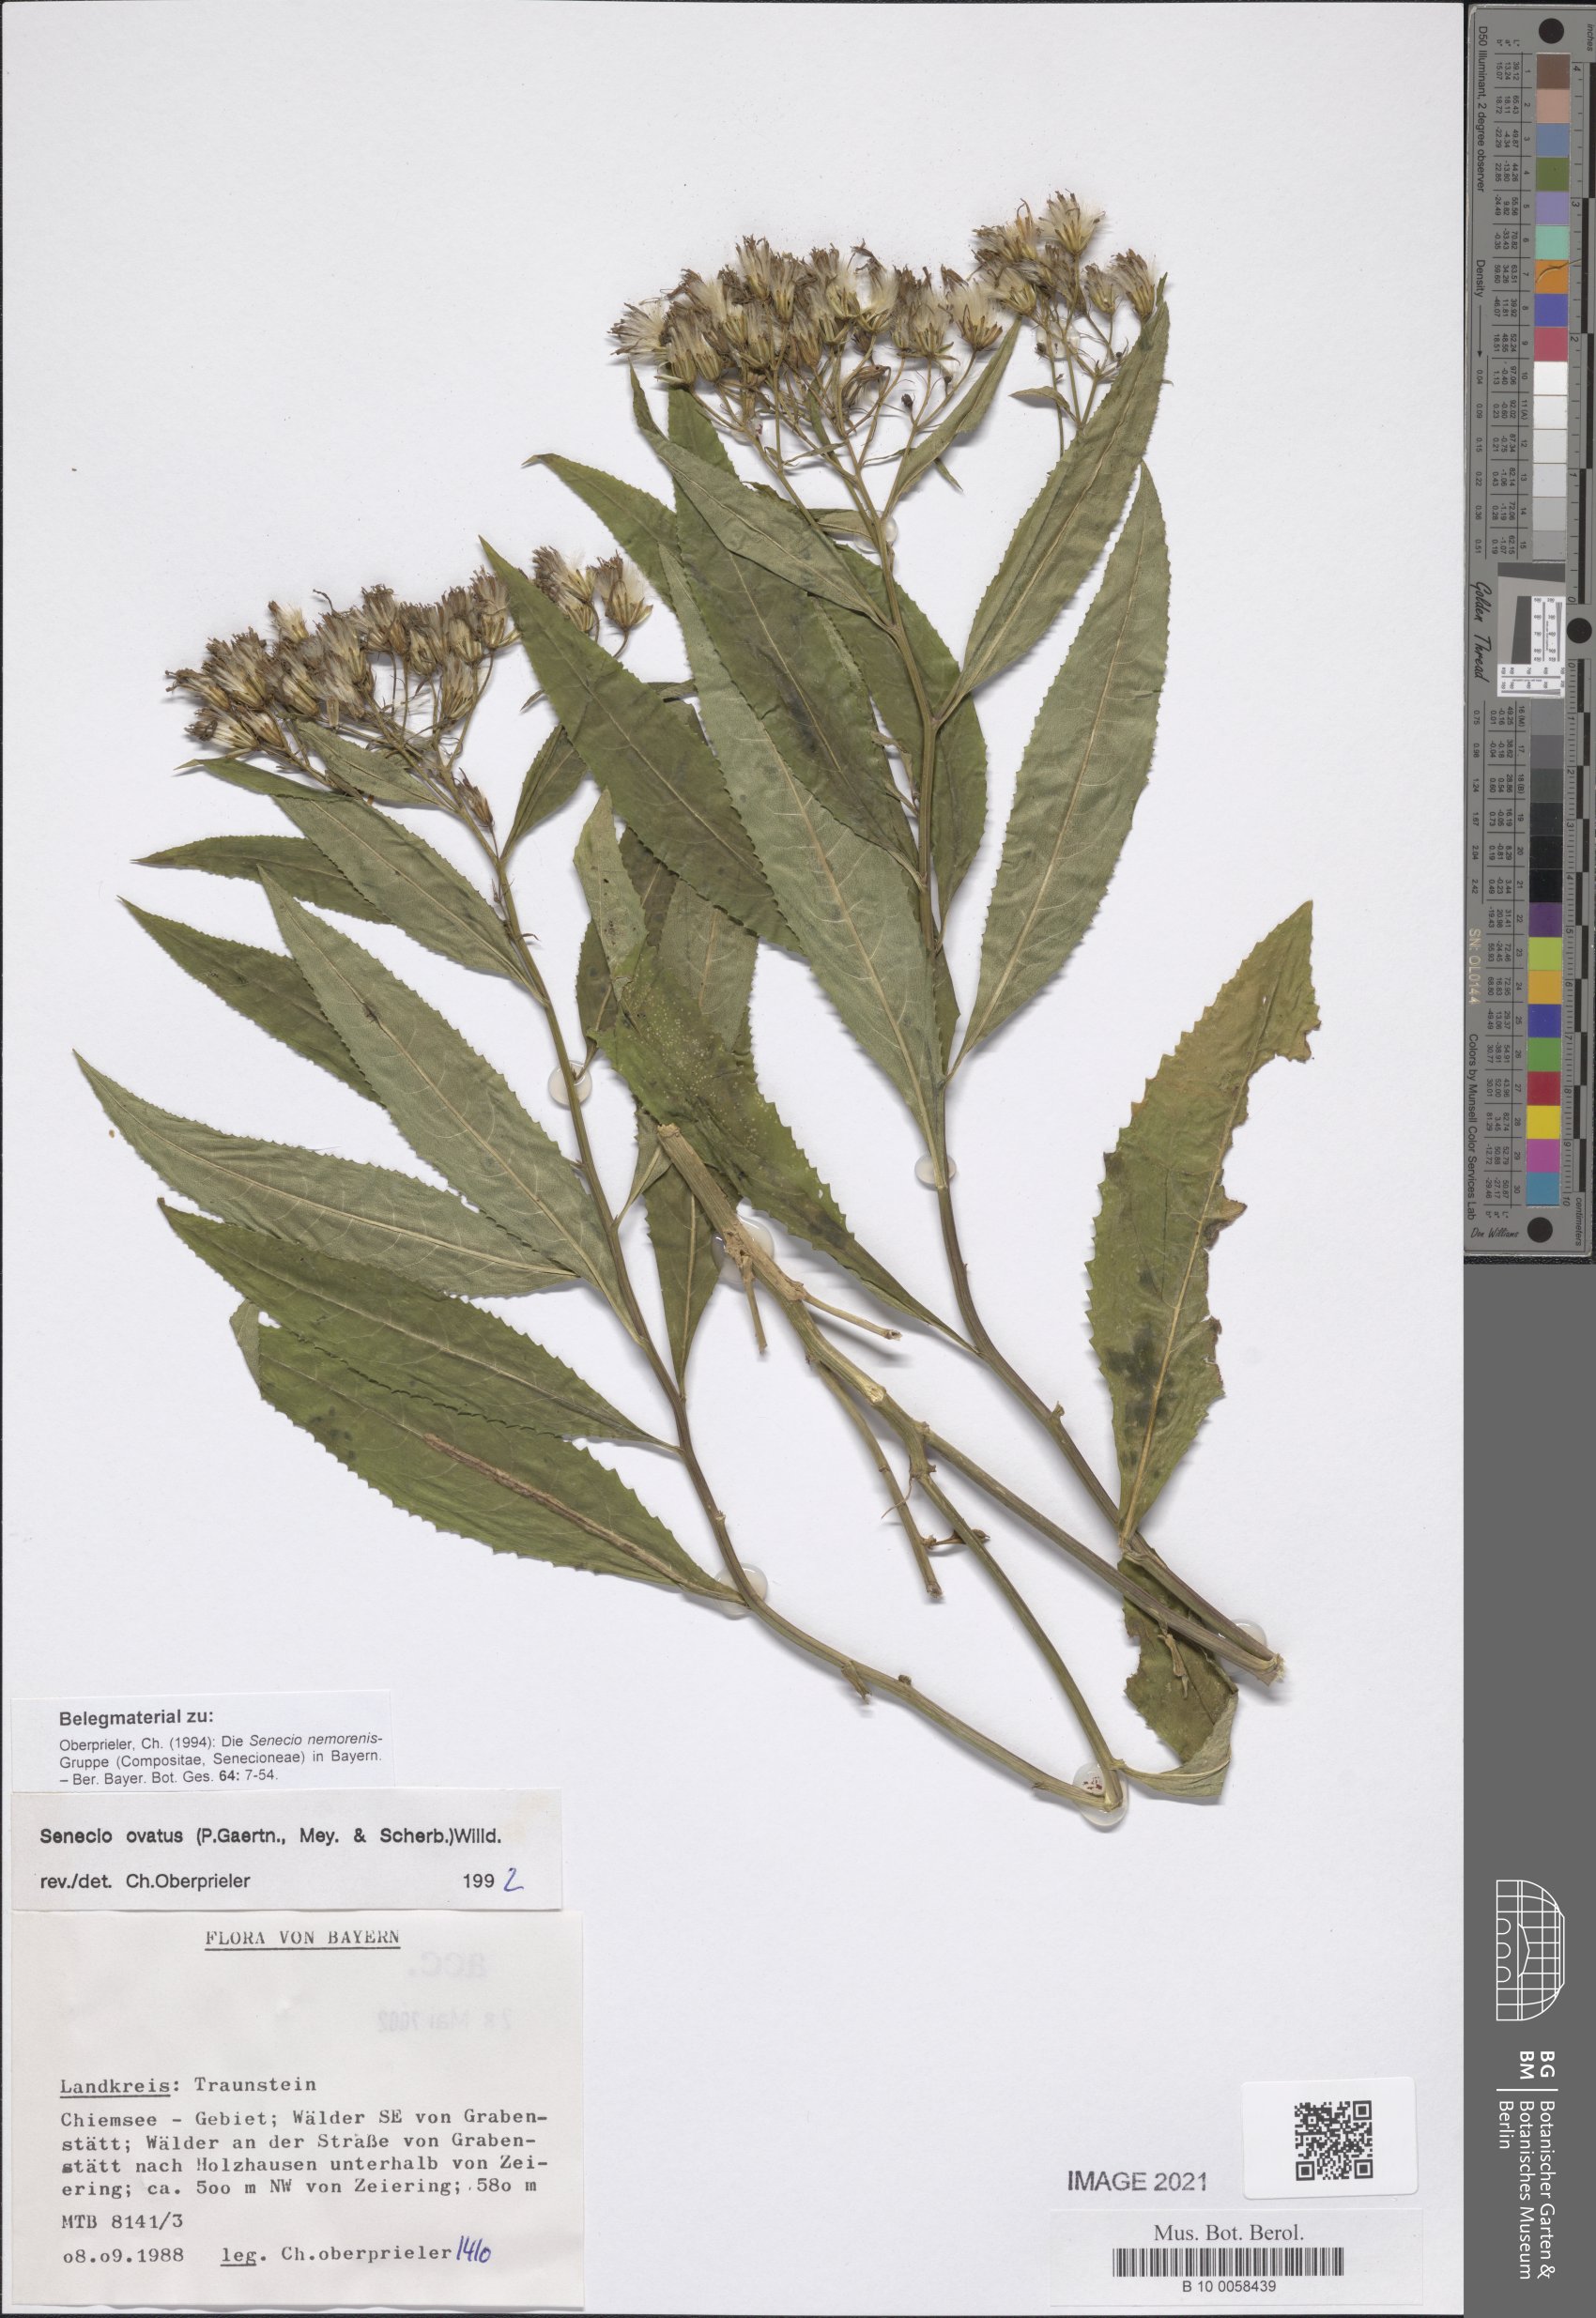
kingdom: Plantae
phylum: Tracheophyta
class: Magnoliopsida
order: Asterales
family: Asteraceae
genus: Senecio
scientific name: Senecio ovatus
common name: Wood ragwort
